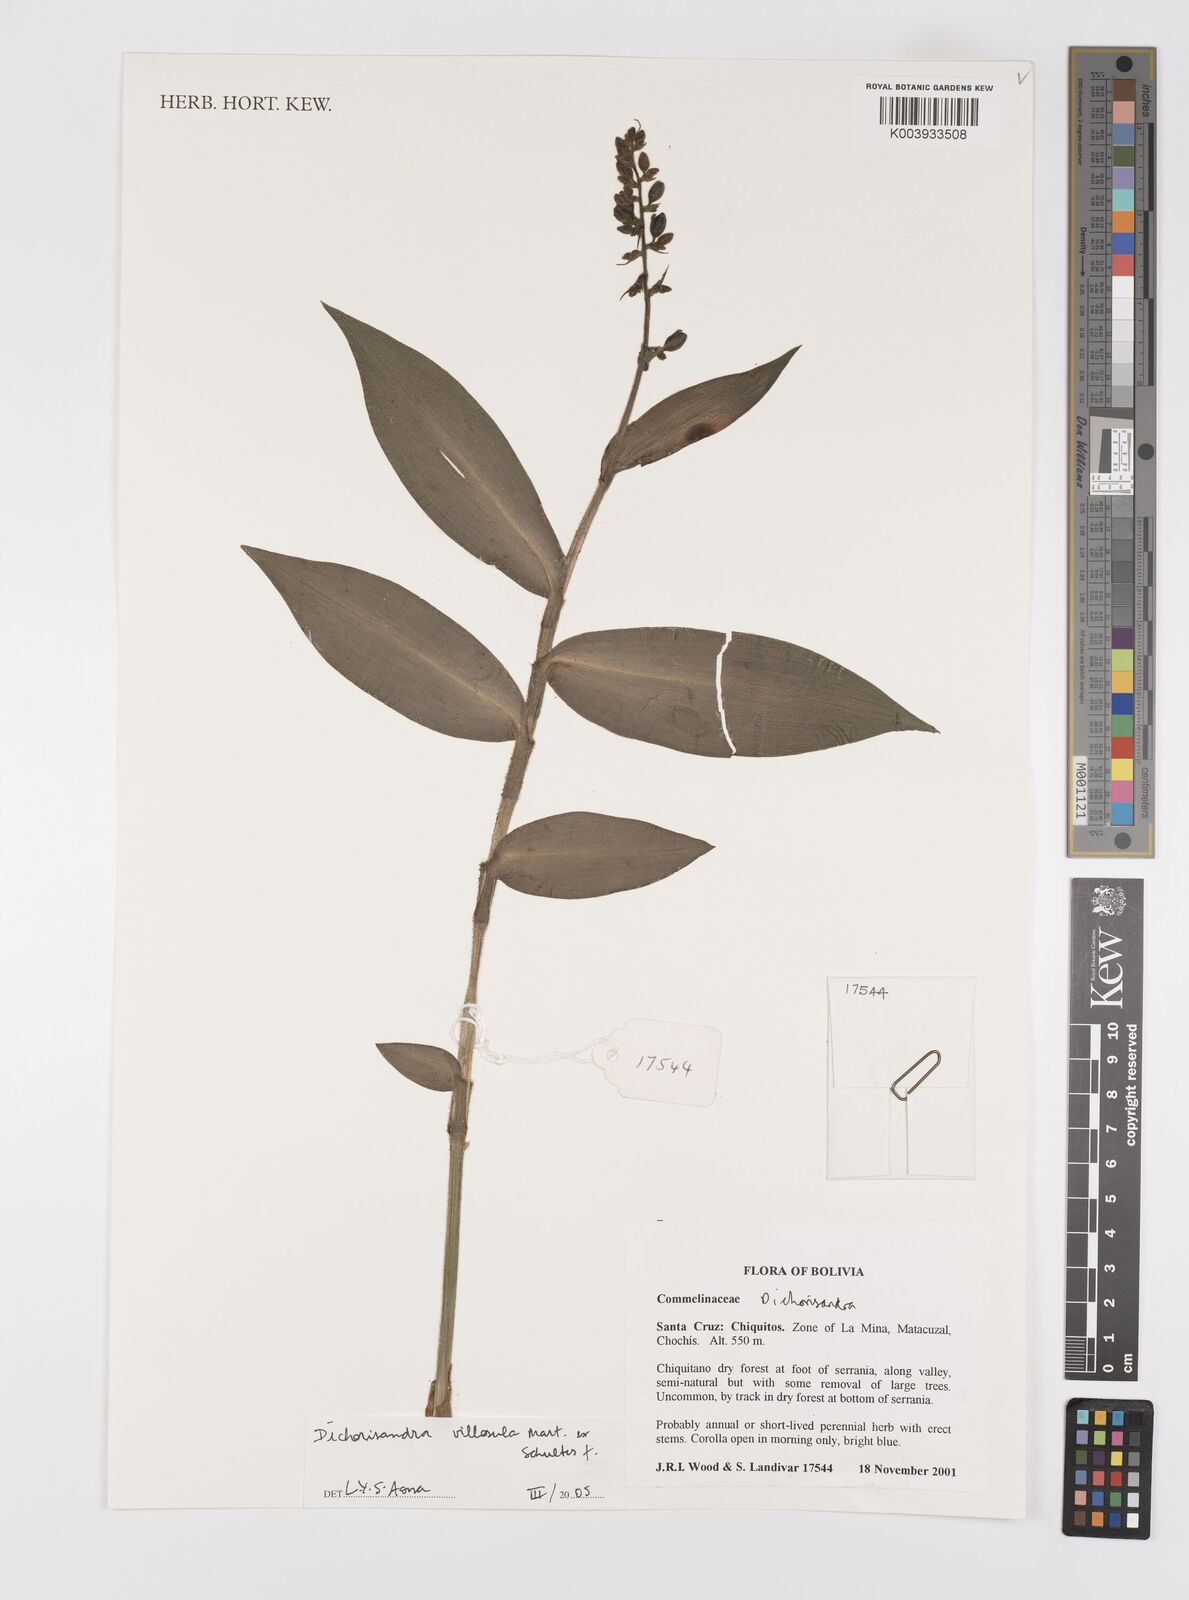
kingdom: Plantae
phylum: Tracheophyta
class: Liliopsida
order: Commelinales
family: Commelinaceae
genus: Dichorisandra
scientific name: Dichorisandra villosula
